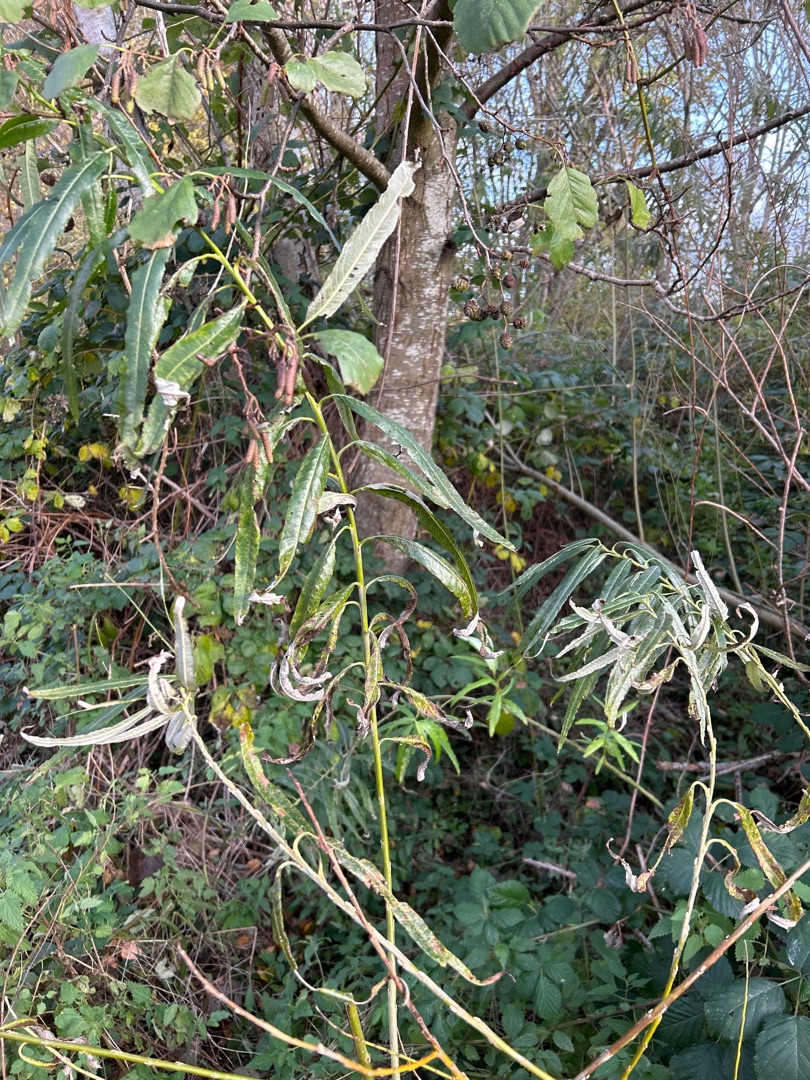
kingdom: Plantae
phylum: Tracheophyta
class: Magnoliopsida
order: Malpighiales
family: Salicaceae
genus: Salix
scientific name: Salix viminalis
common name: Bånd-pil
